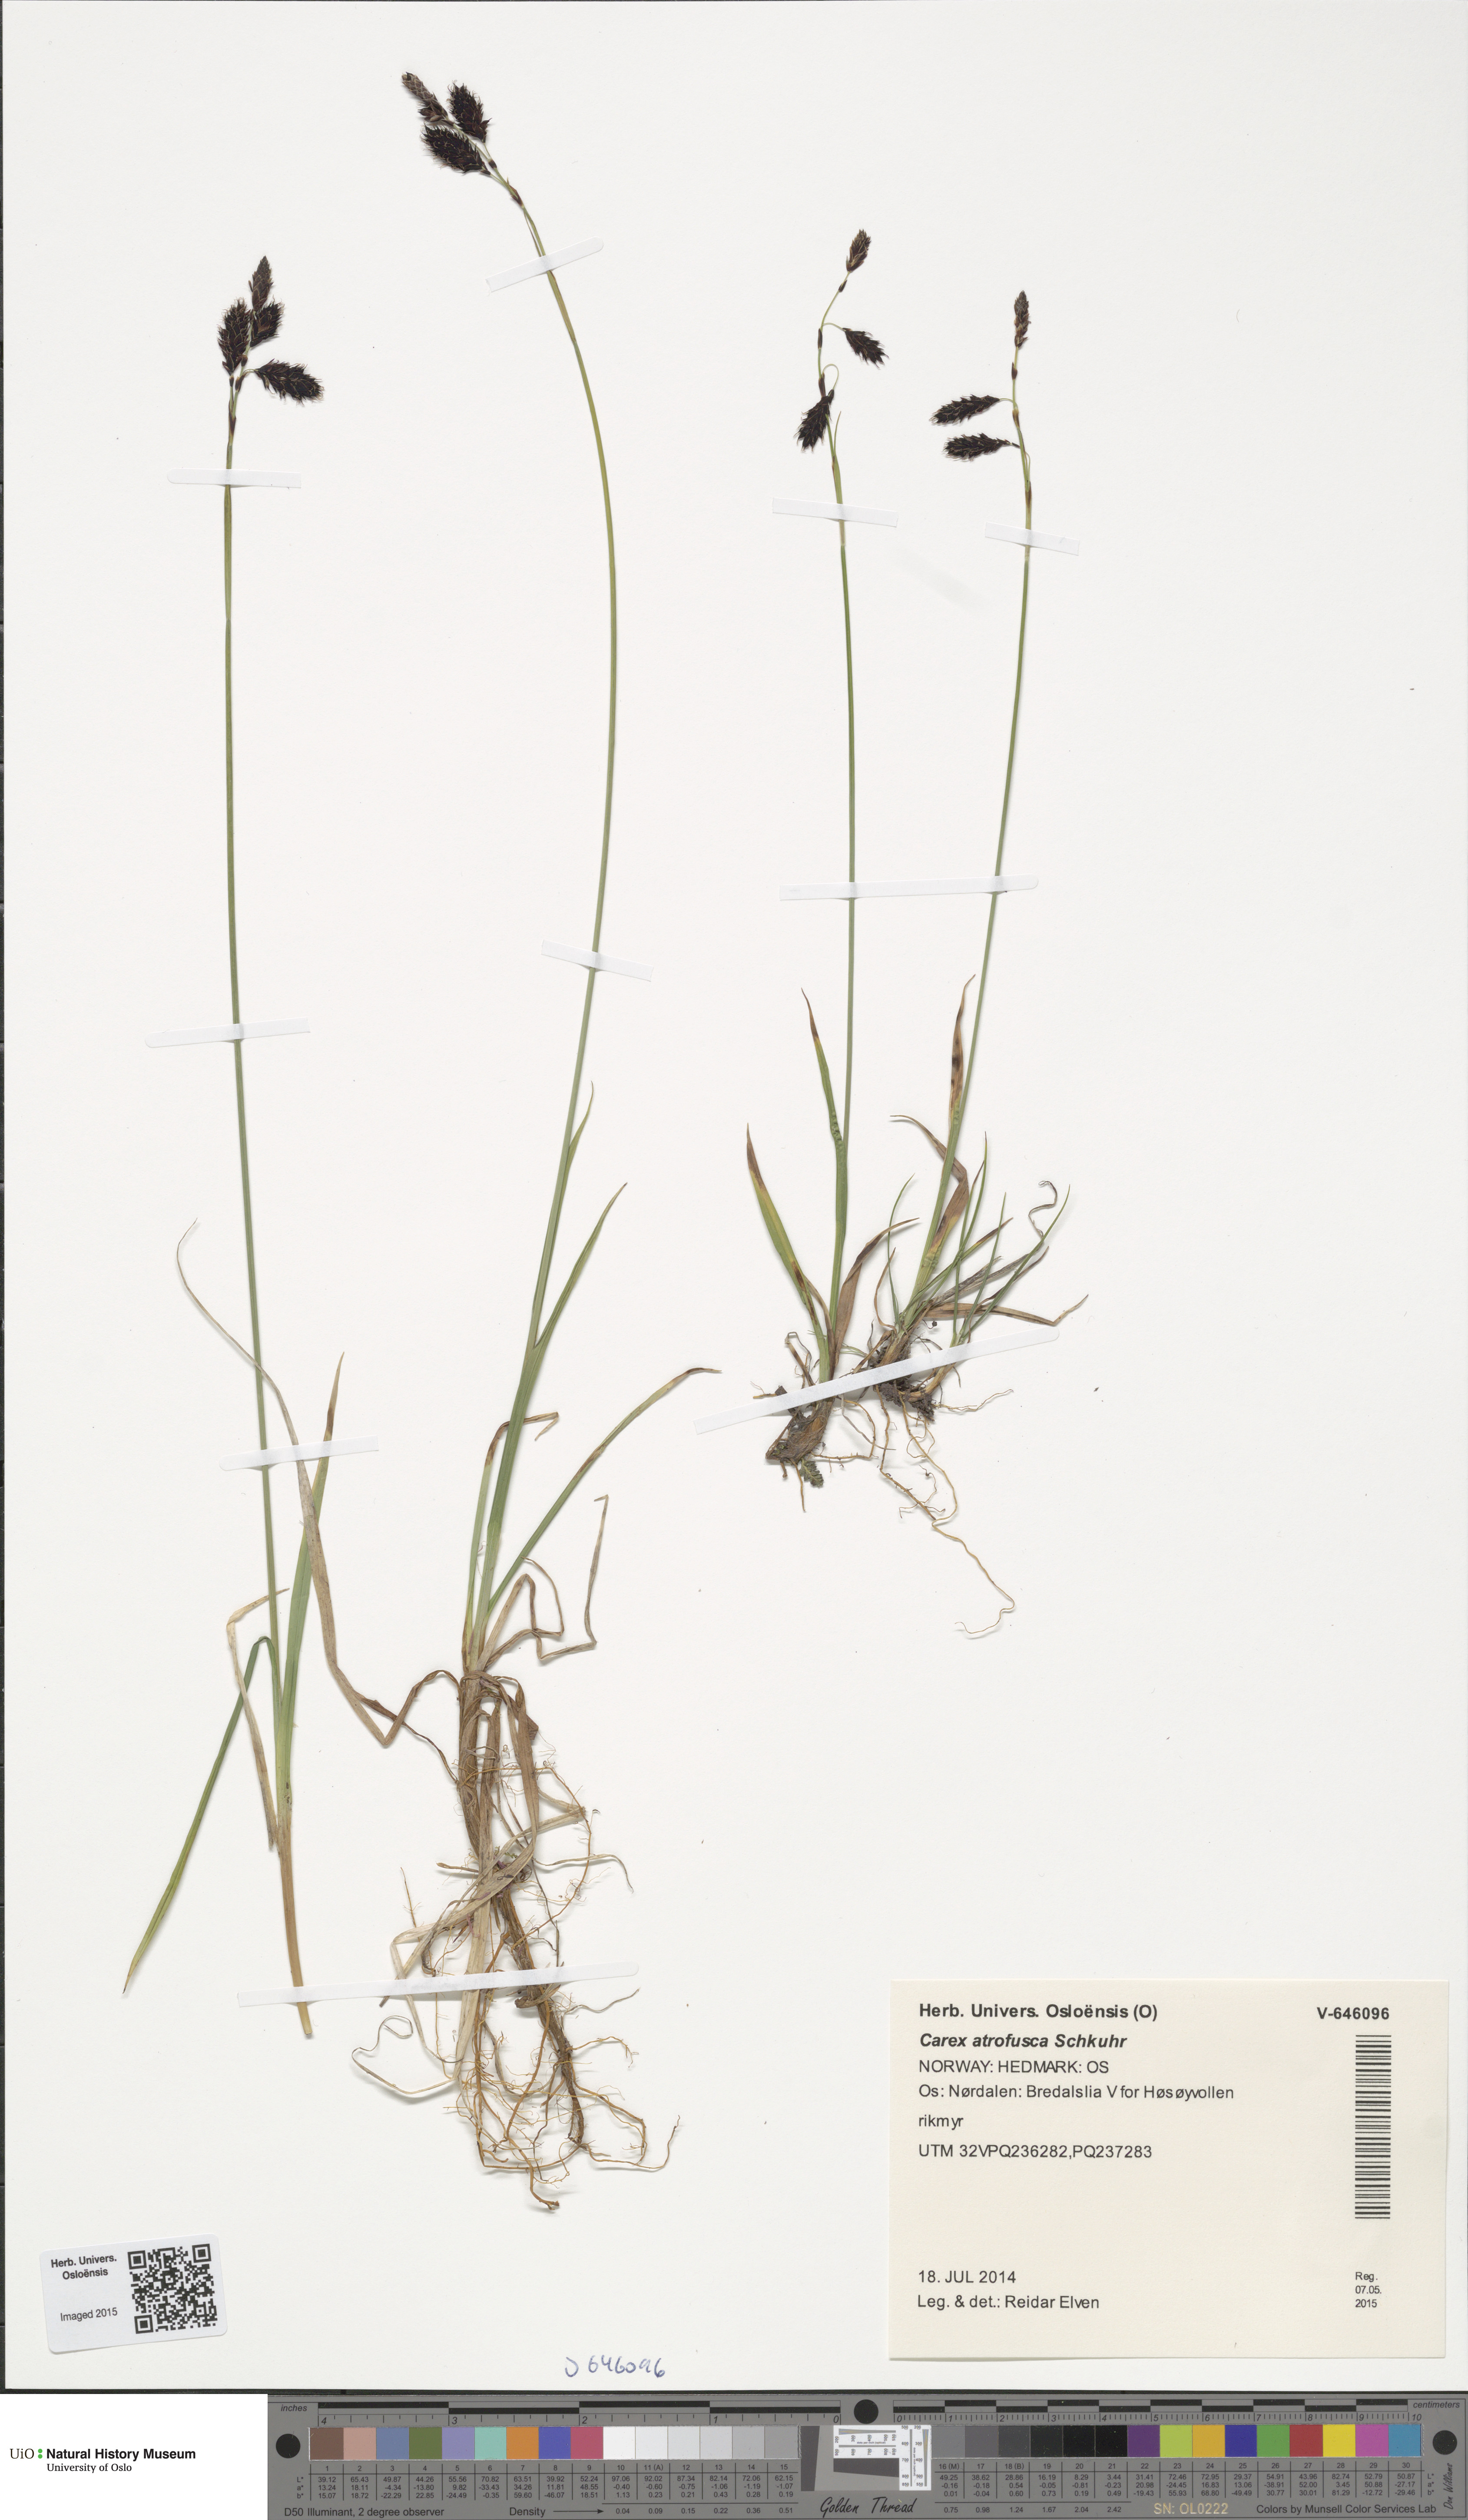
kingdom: Plantae
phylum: Tracheophyta
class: Liliopsida
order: Poales
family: Cyperaceae
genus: Carex
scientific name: Carex atrofusca
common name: Scorched alpine-sedge
